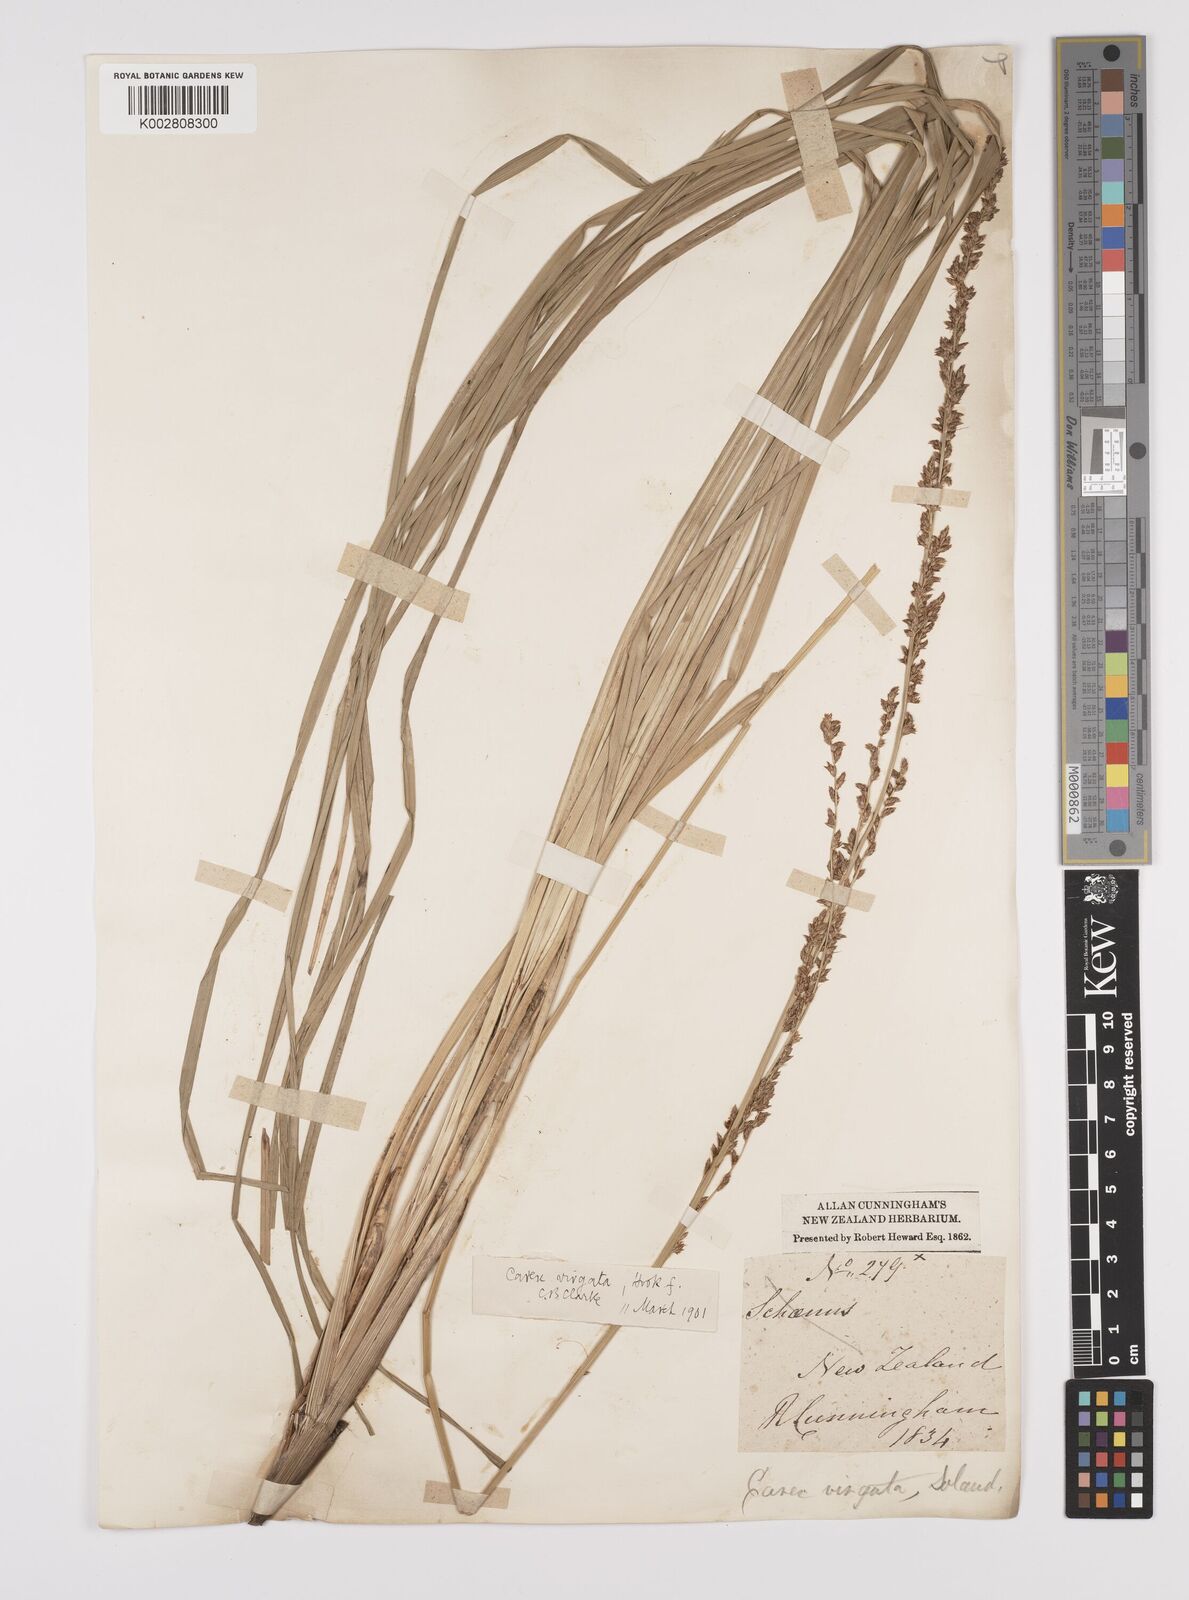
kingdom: Plantae
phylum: Tracheophyta
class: Liliopsida
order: Poales
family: Cyperaceae
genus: Carex
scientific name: Carex appressa
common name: Tussock sedge
